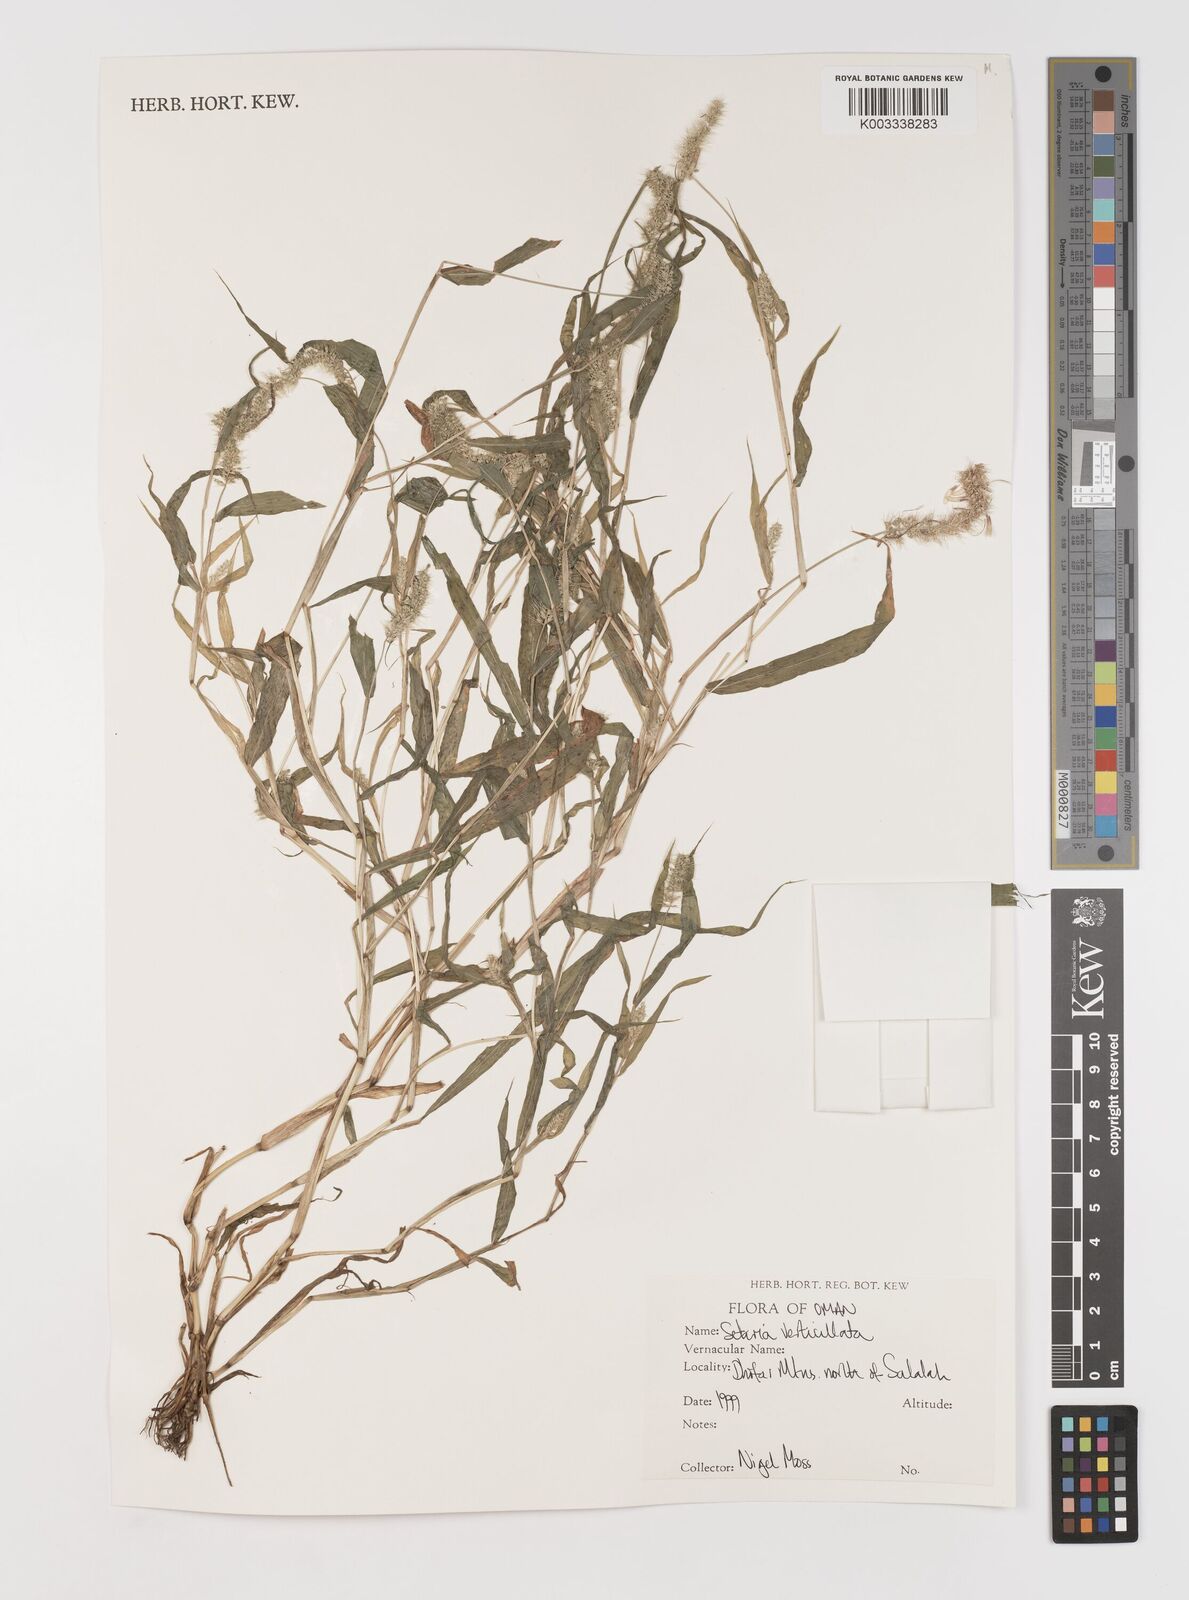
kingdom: Plantae
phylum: Tracheophyta
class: Liliopsida
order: Poales
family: Poaceae
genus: Setaria
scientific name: Setaria verticillata
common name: Hooked bristlegrass
